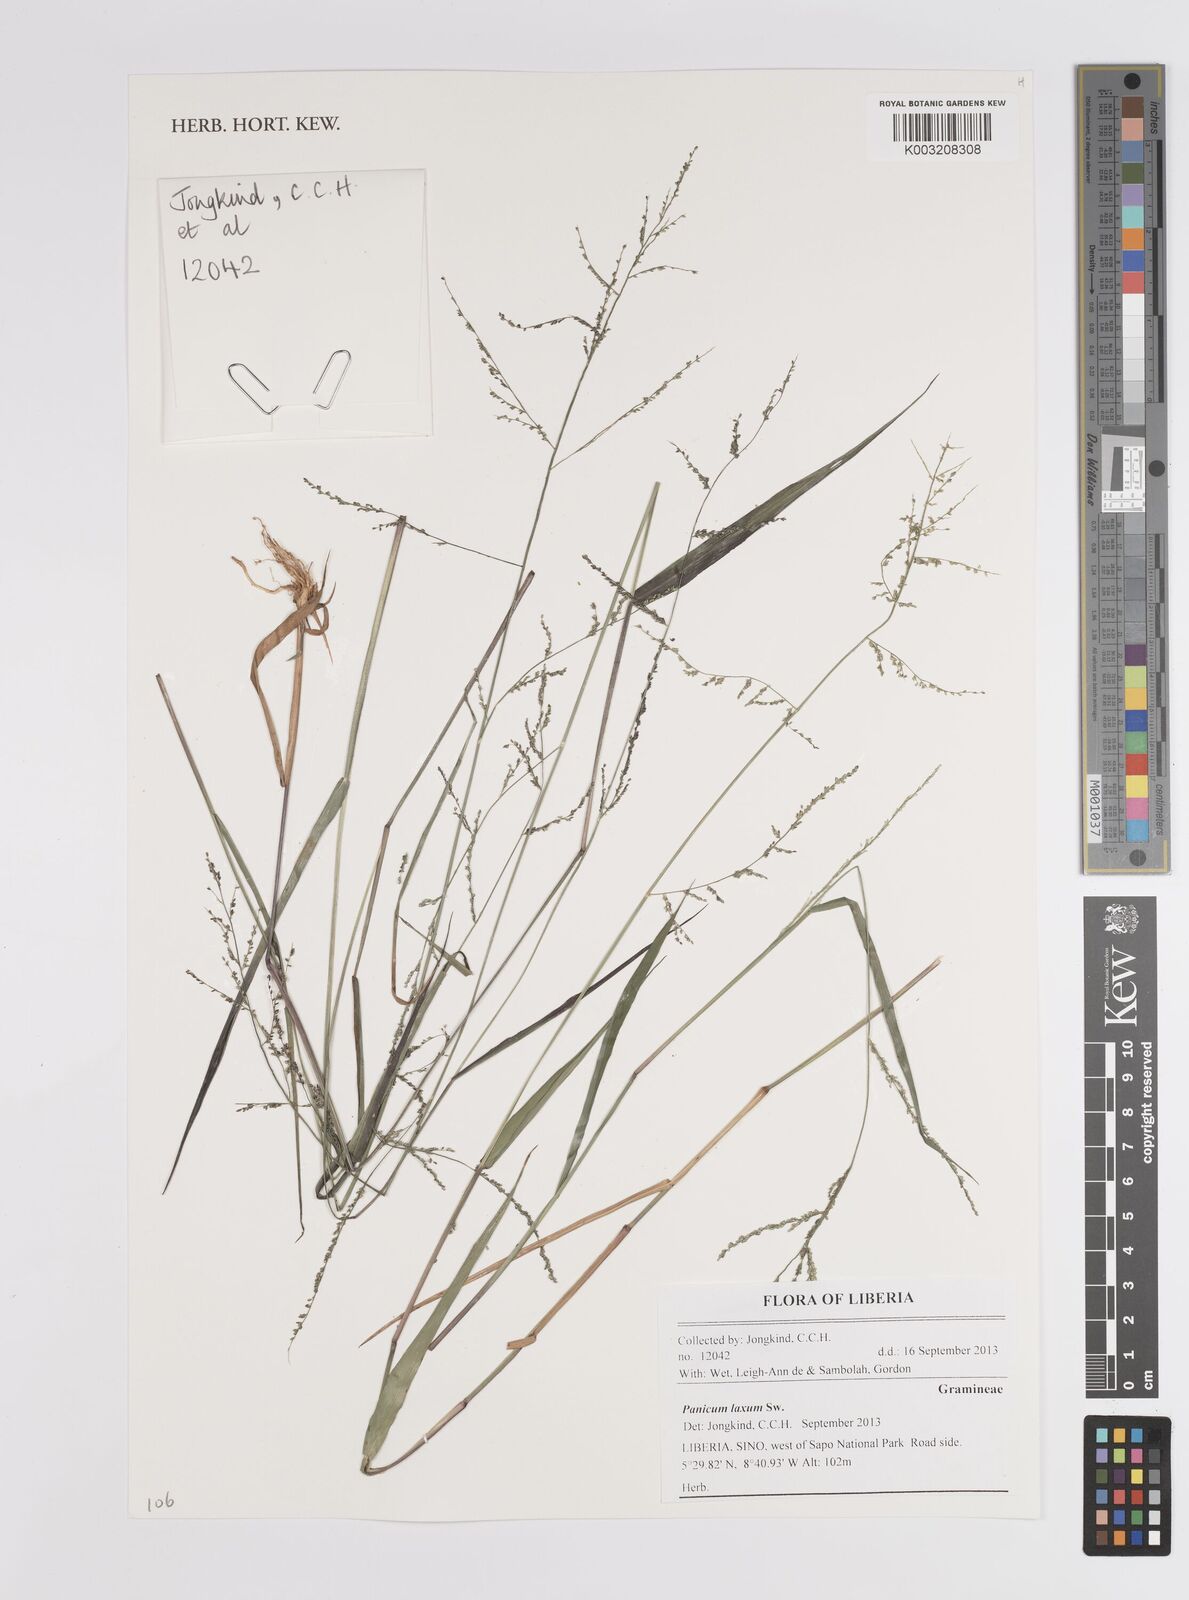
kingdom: Plantae
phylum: Tracheophyta
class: Liliopsida
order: Poales
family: Poaceae
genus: Steinchisma
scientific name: Steinchisma laxum
